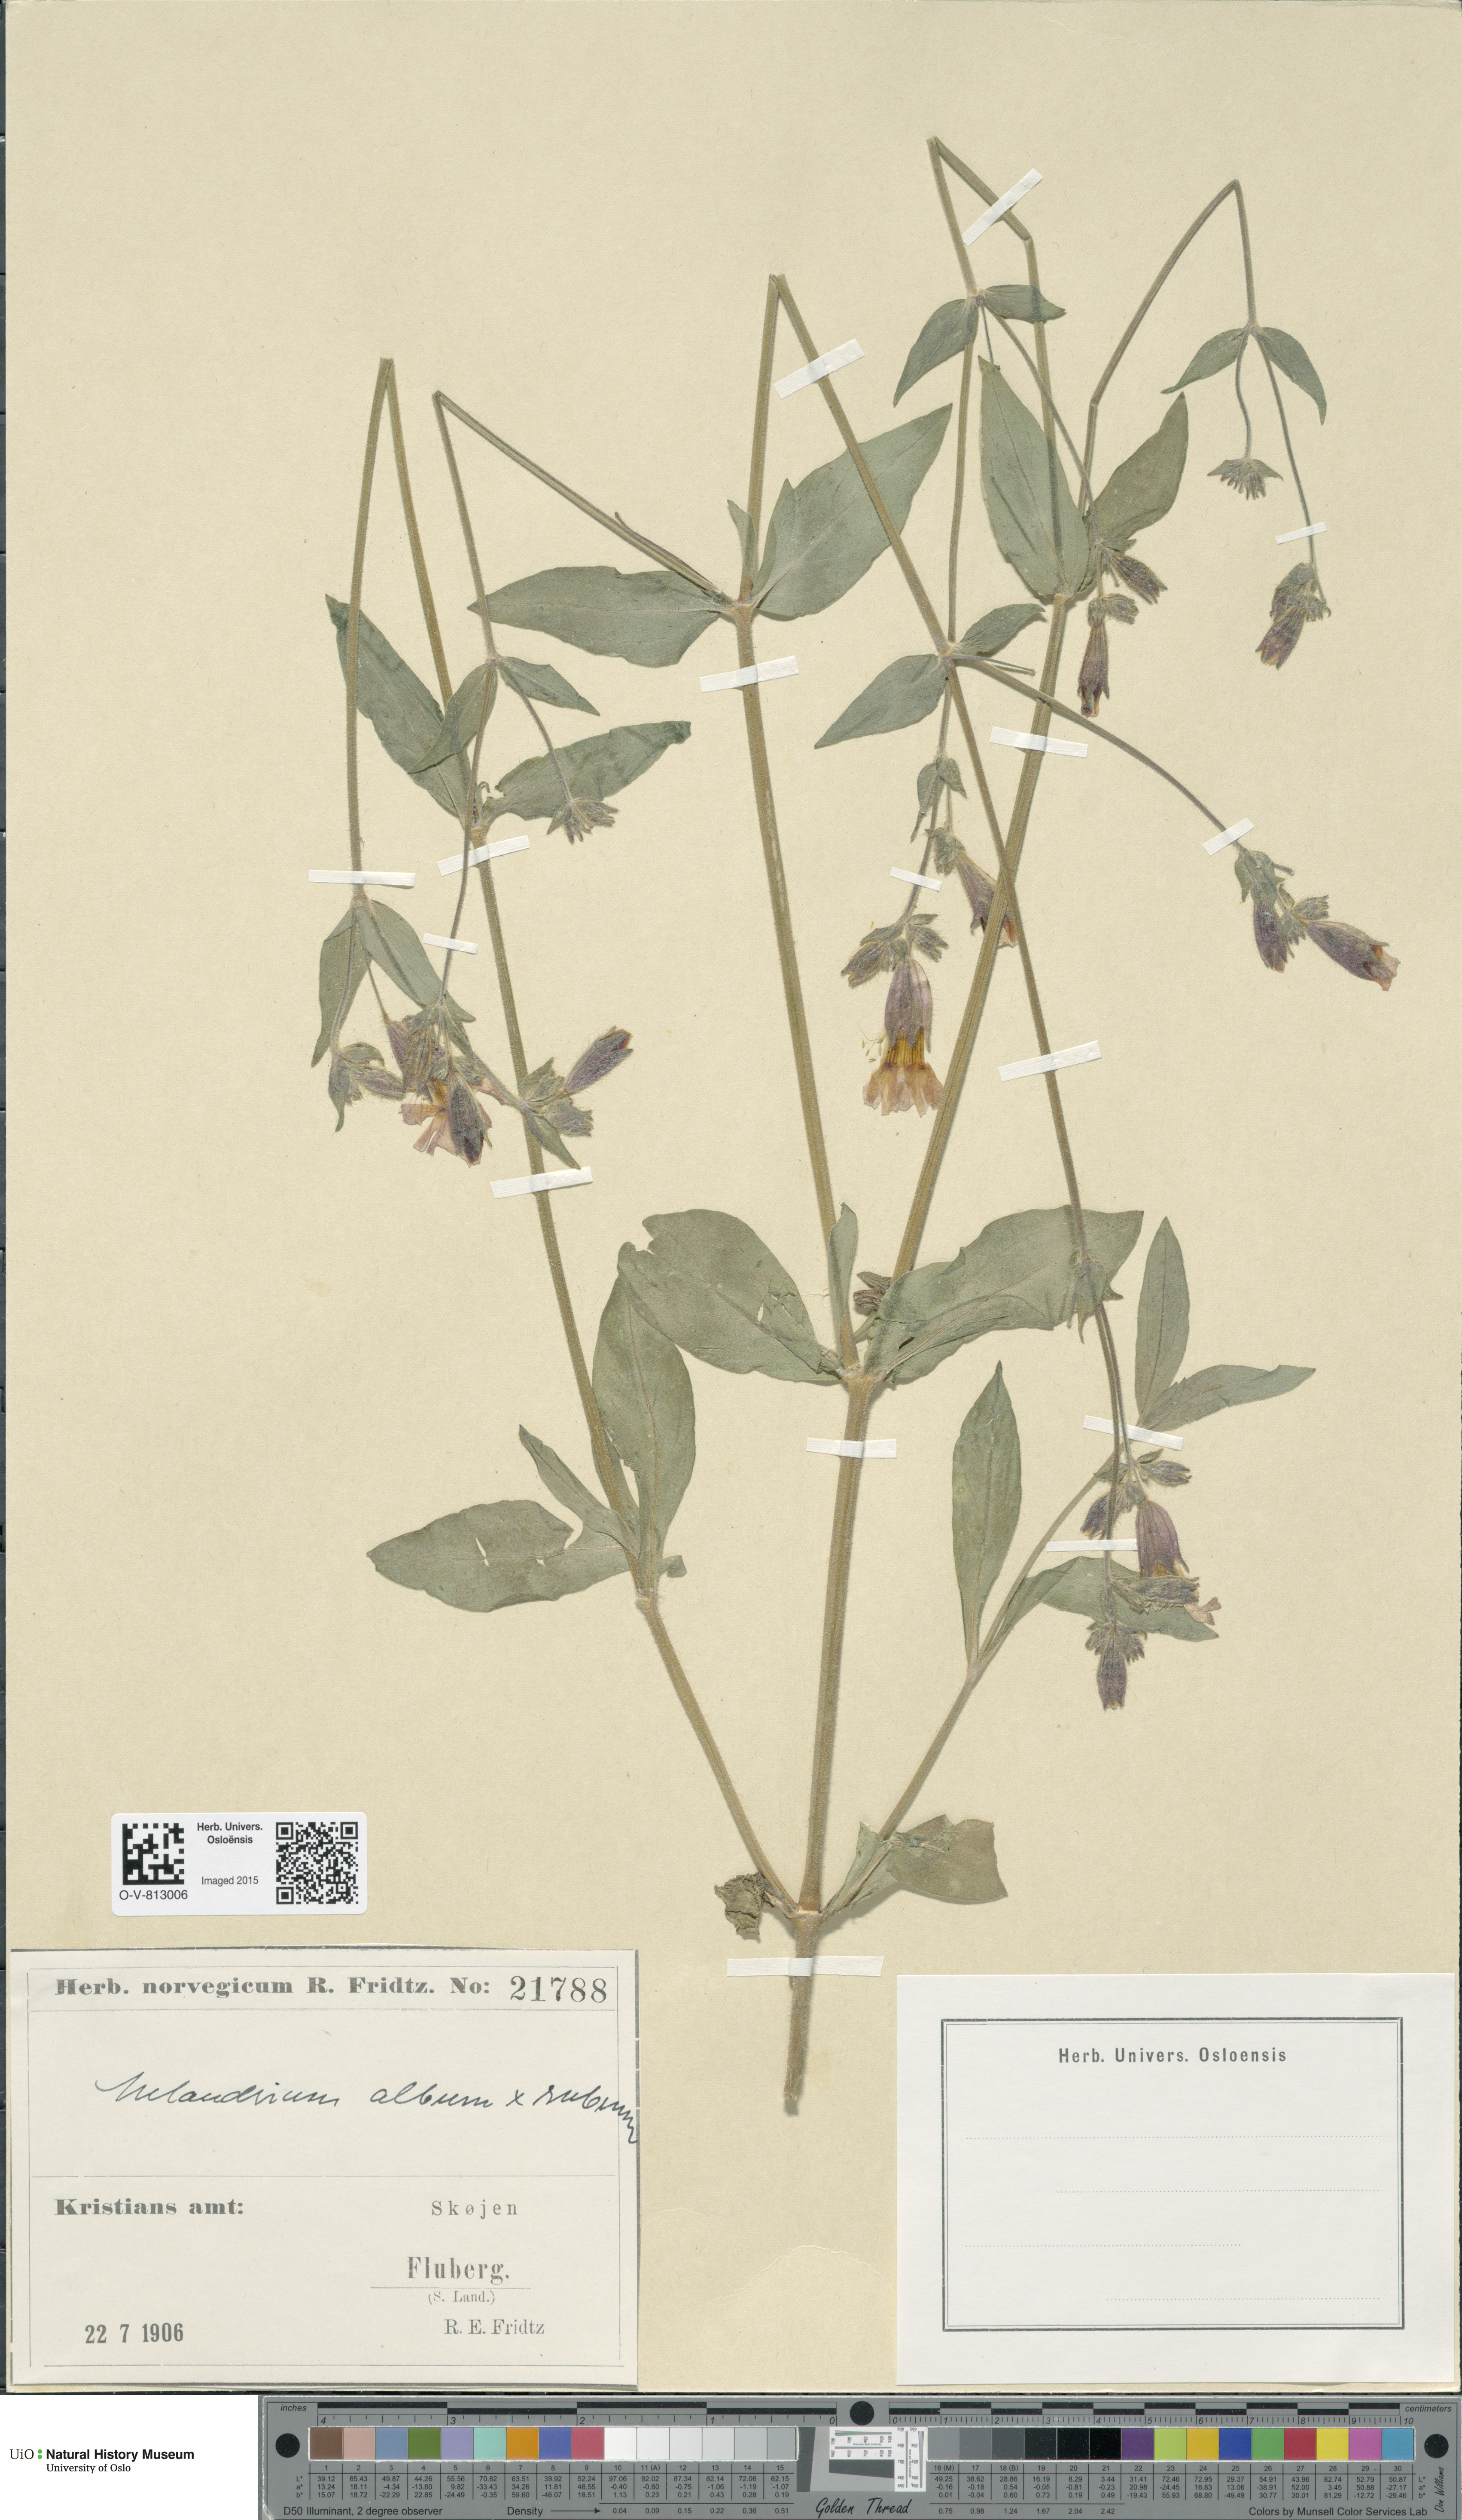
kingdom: Plantae
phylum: Tracheophyta
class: Magnoliopsida
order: Caryophyllales
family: Caryophyllaceae
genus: Silene
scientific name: Silene
